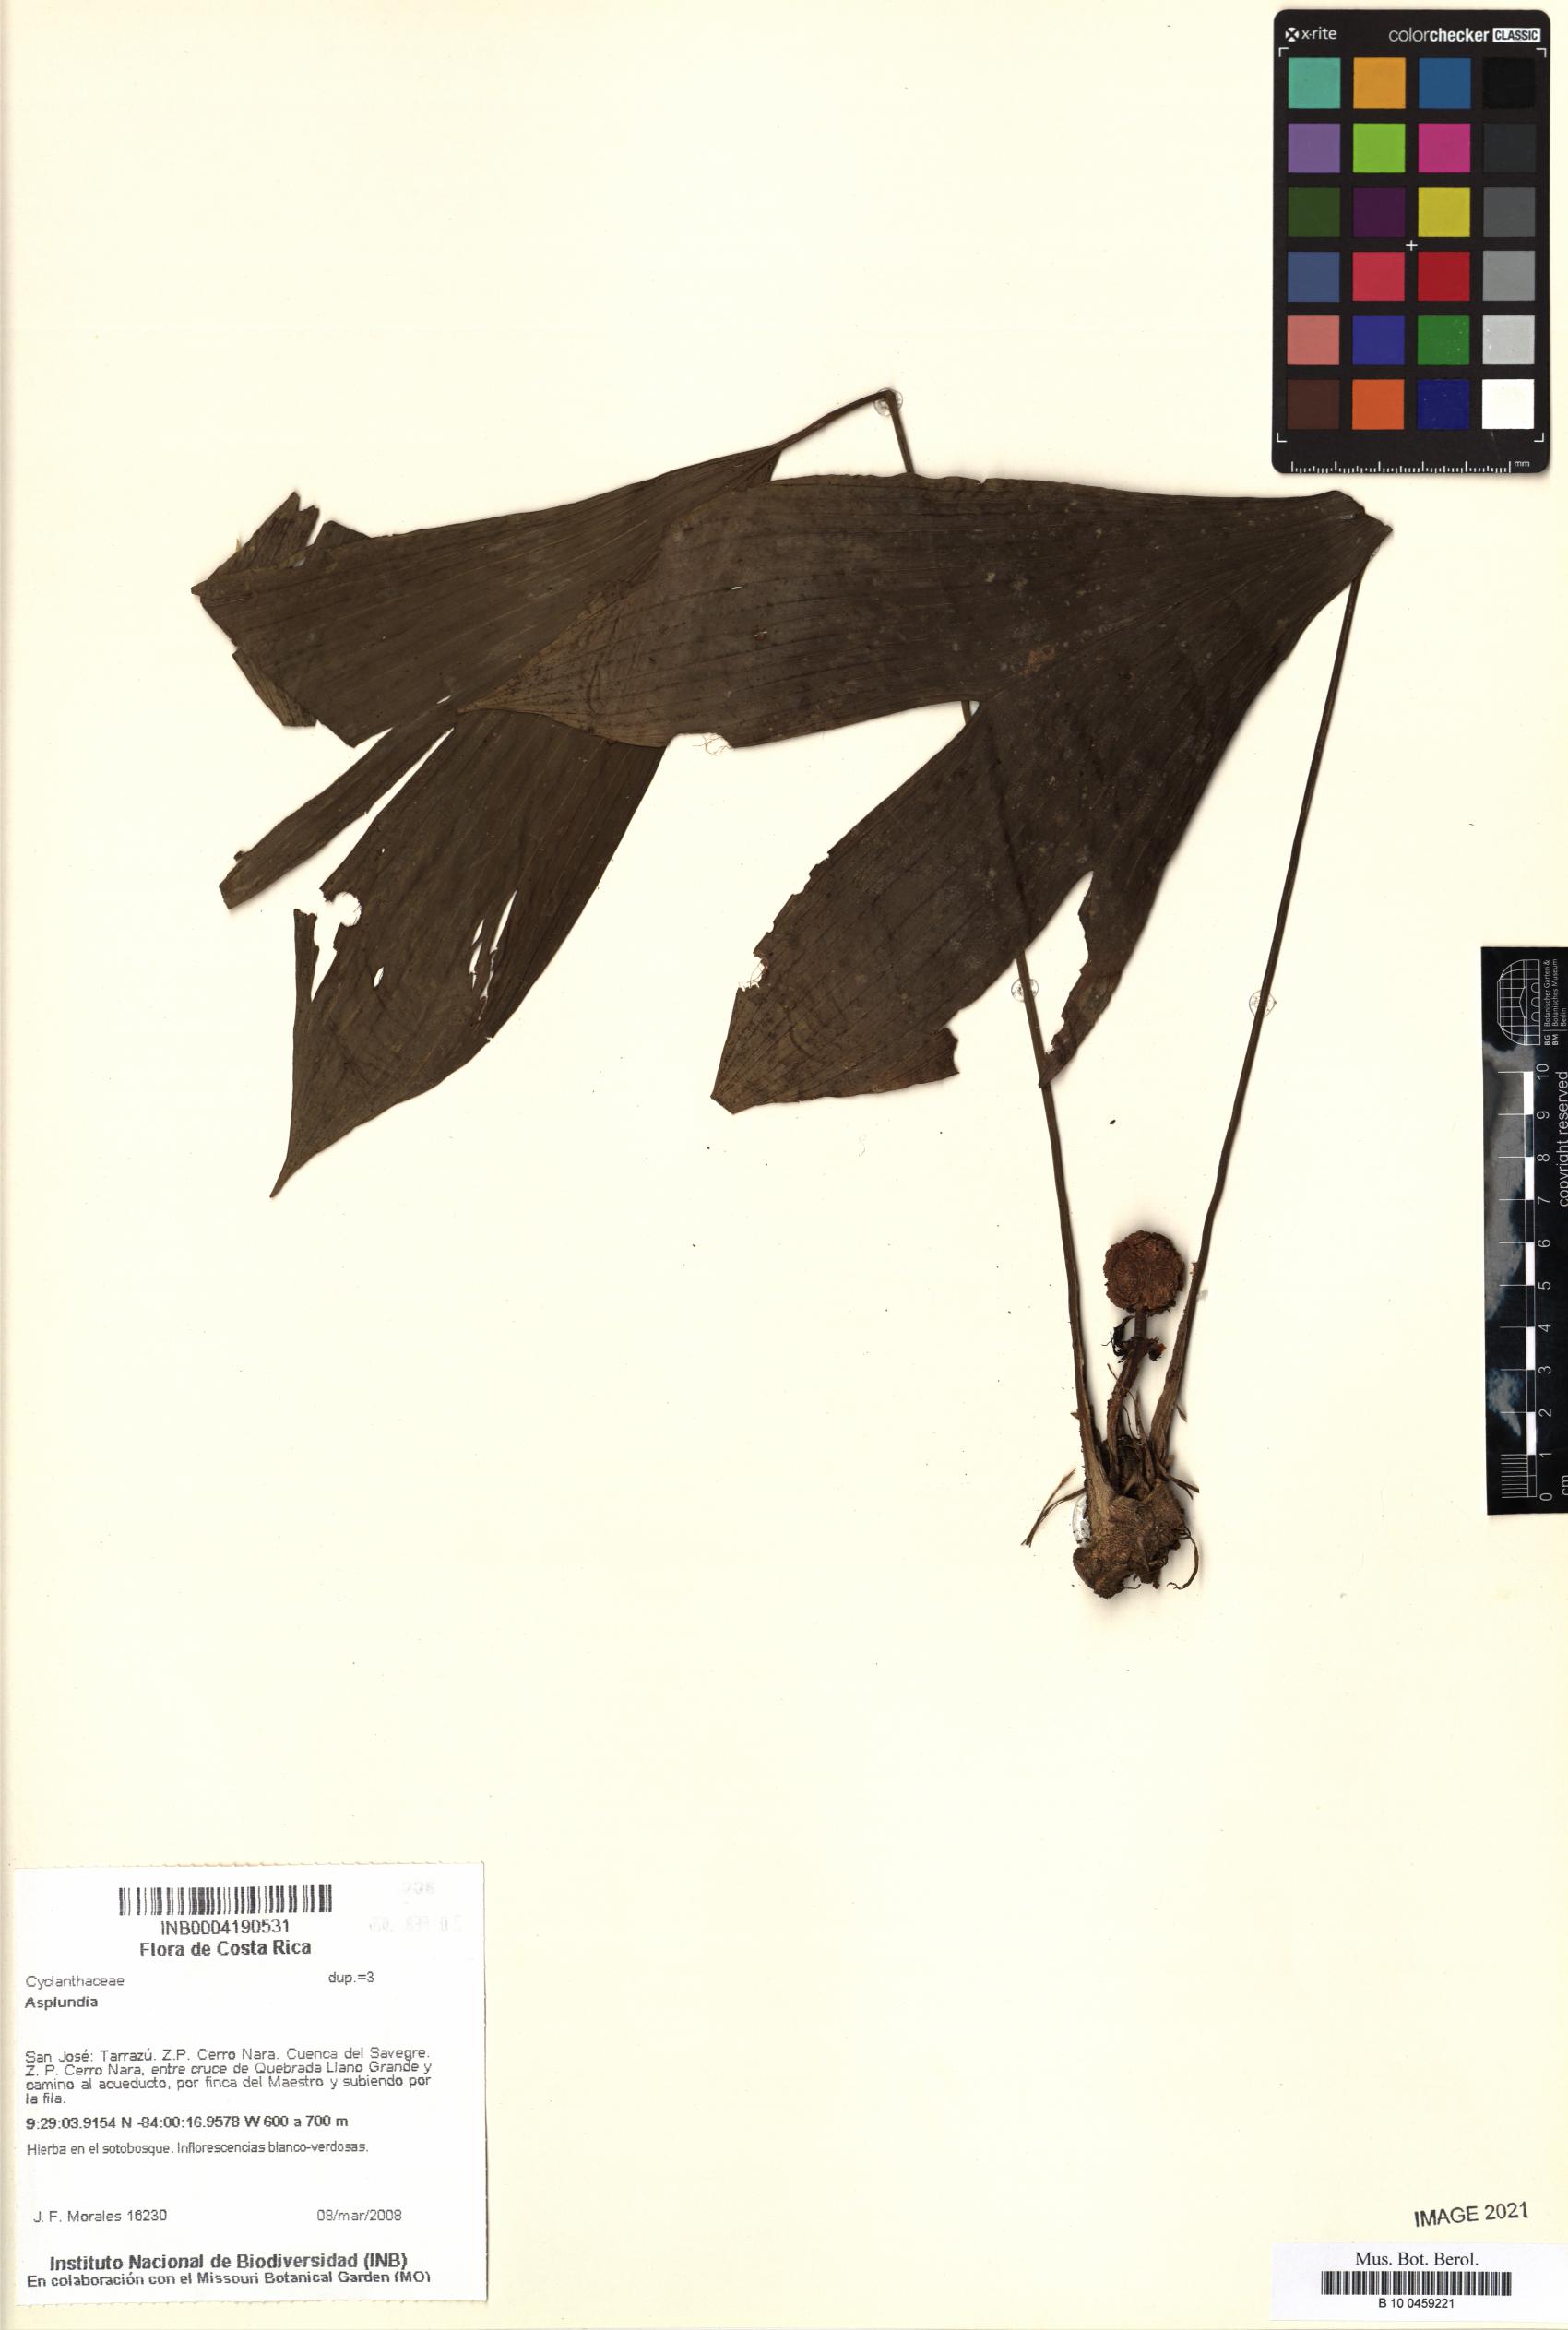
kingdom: Plantae
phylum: Tracheophyta
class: Liliopsida
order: Pandanales
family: Cyclanthaceae
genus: Asplundia
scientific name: Asplundia
